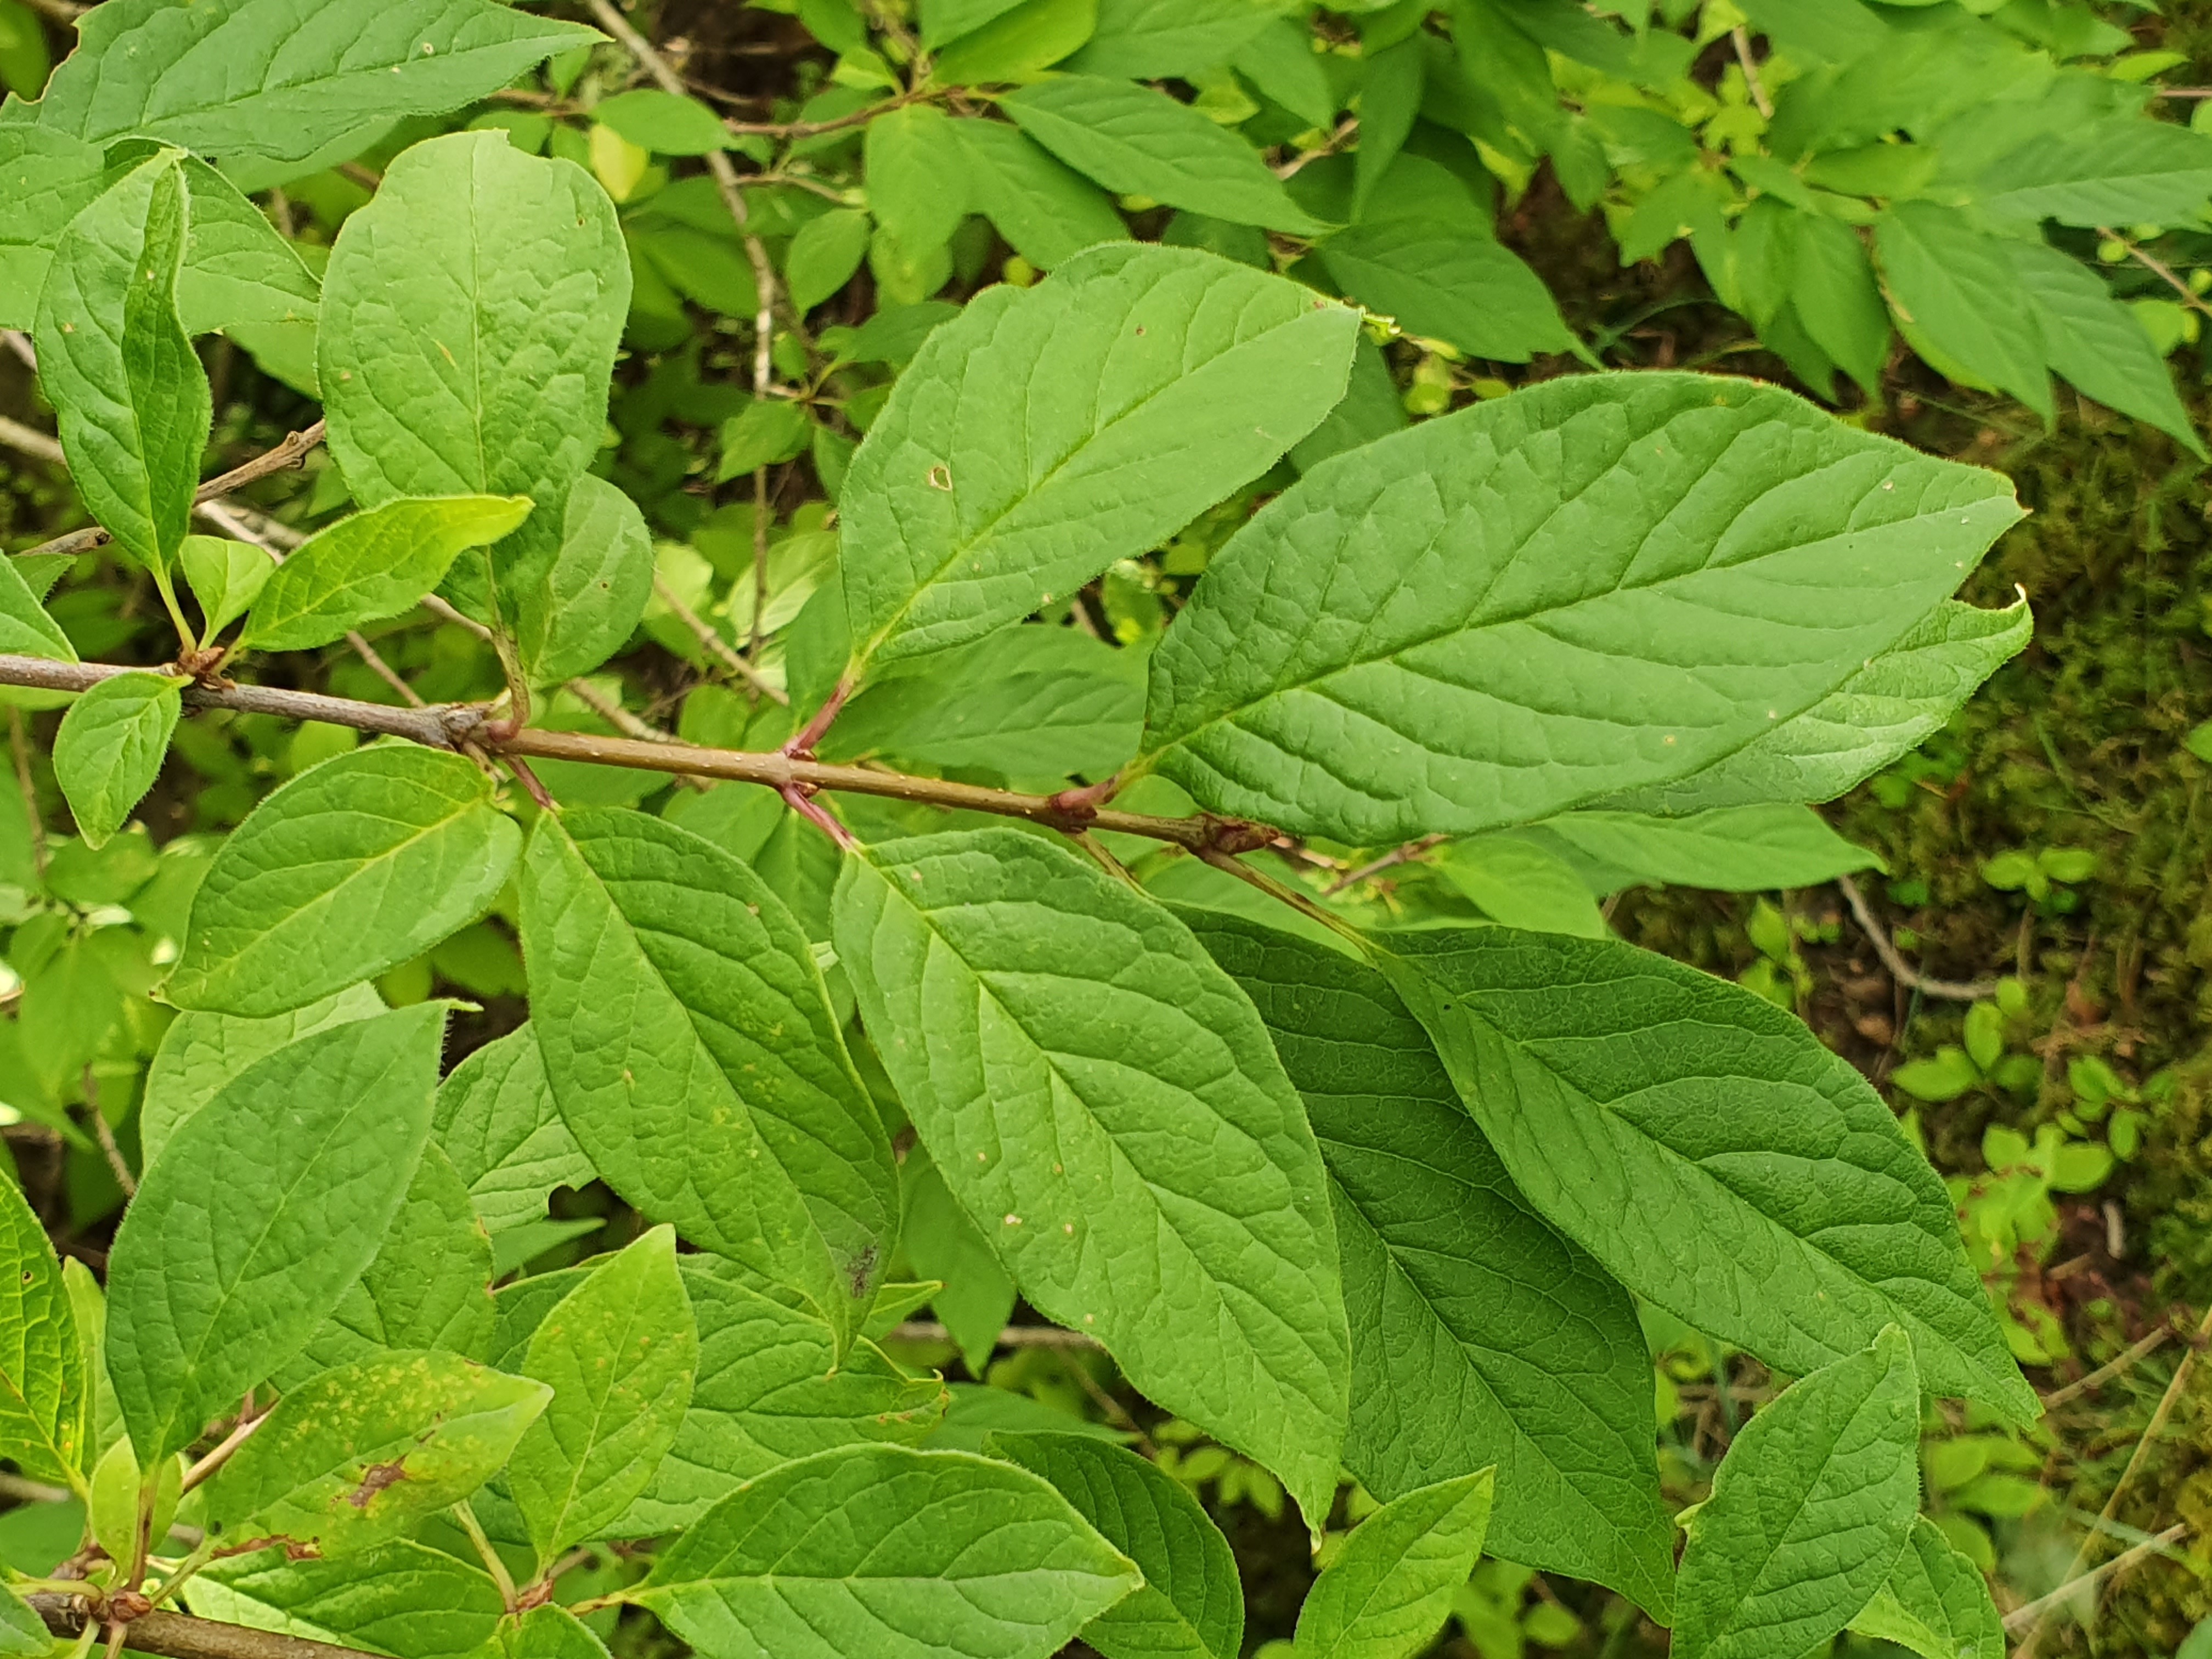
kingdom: Plantae
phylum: Tracheophyta
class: Magnoliopsida
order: Lamiales
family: Oleaceae
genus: Syringa
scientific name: Syringa josikaea
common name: Hungarian lilac
